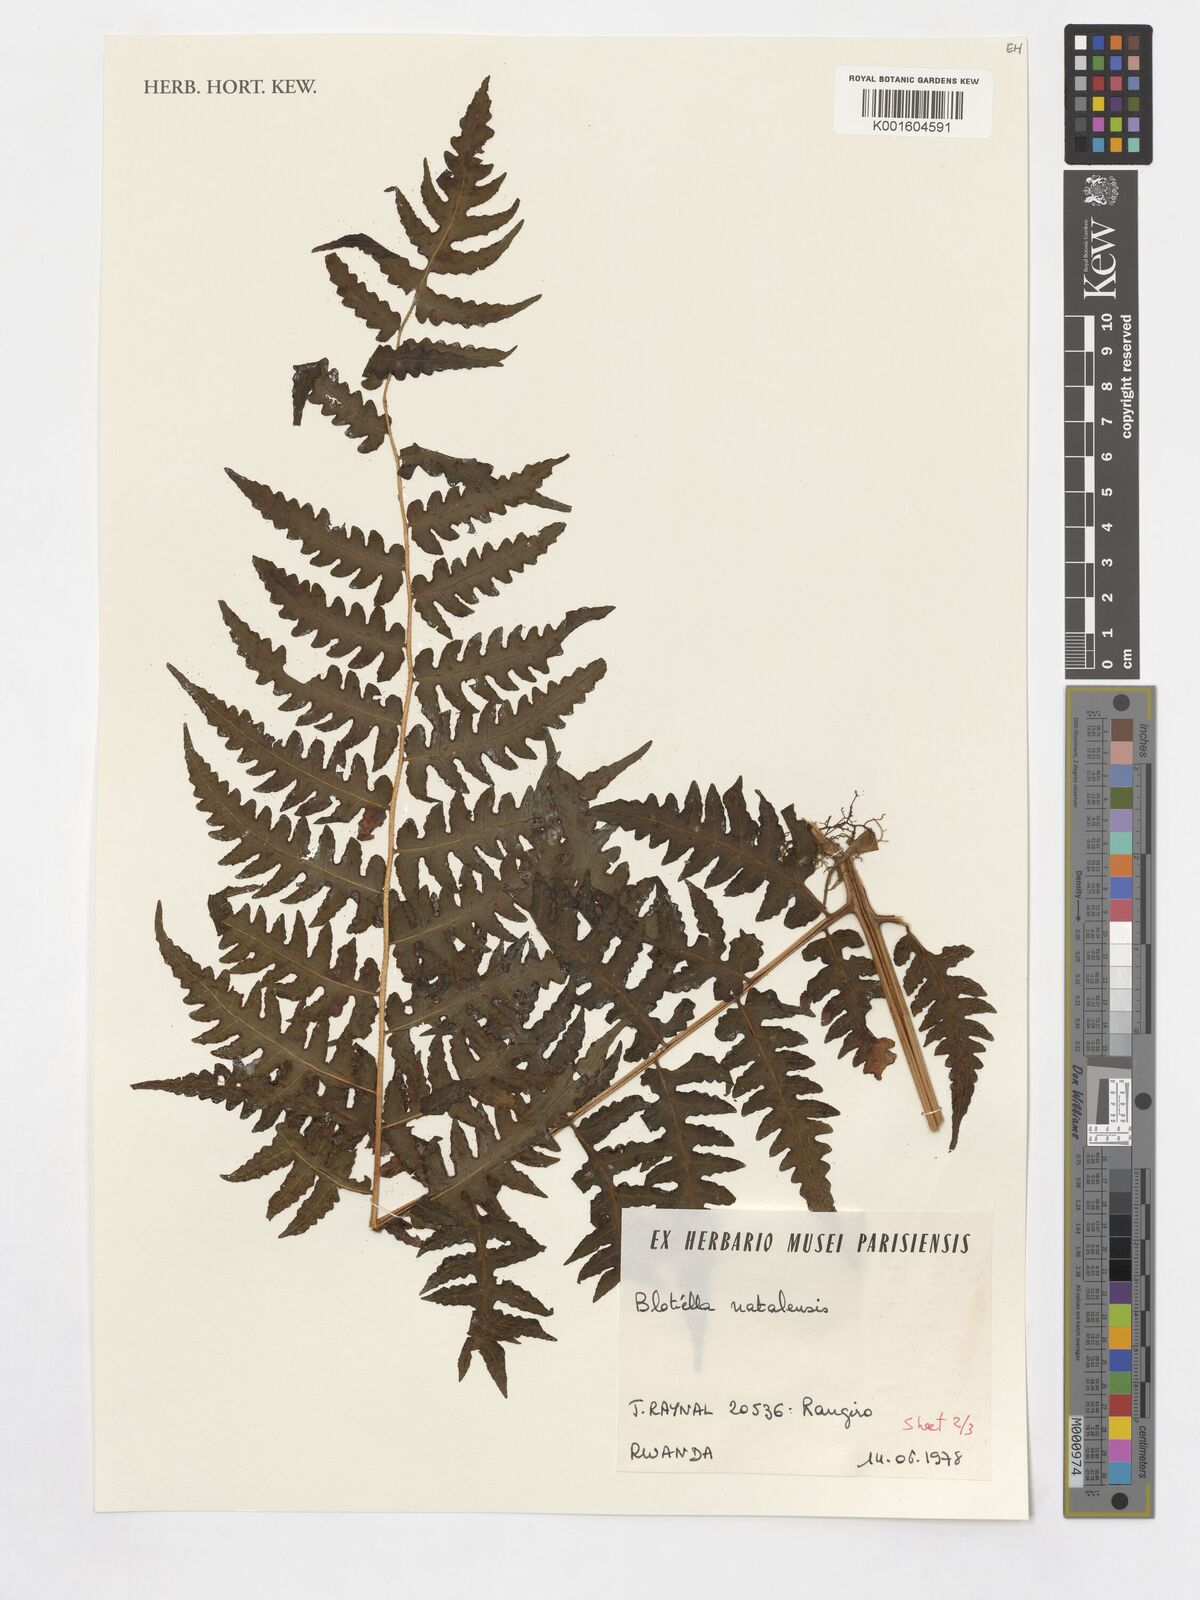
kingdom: Plantae
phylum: Tracheophyta
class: Polypodiopsida
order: Polypodiales
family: Dennstaedtiaceae
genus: Blotiella
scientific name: Blotiella natalensis
